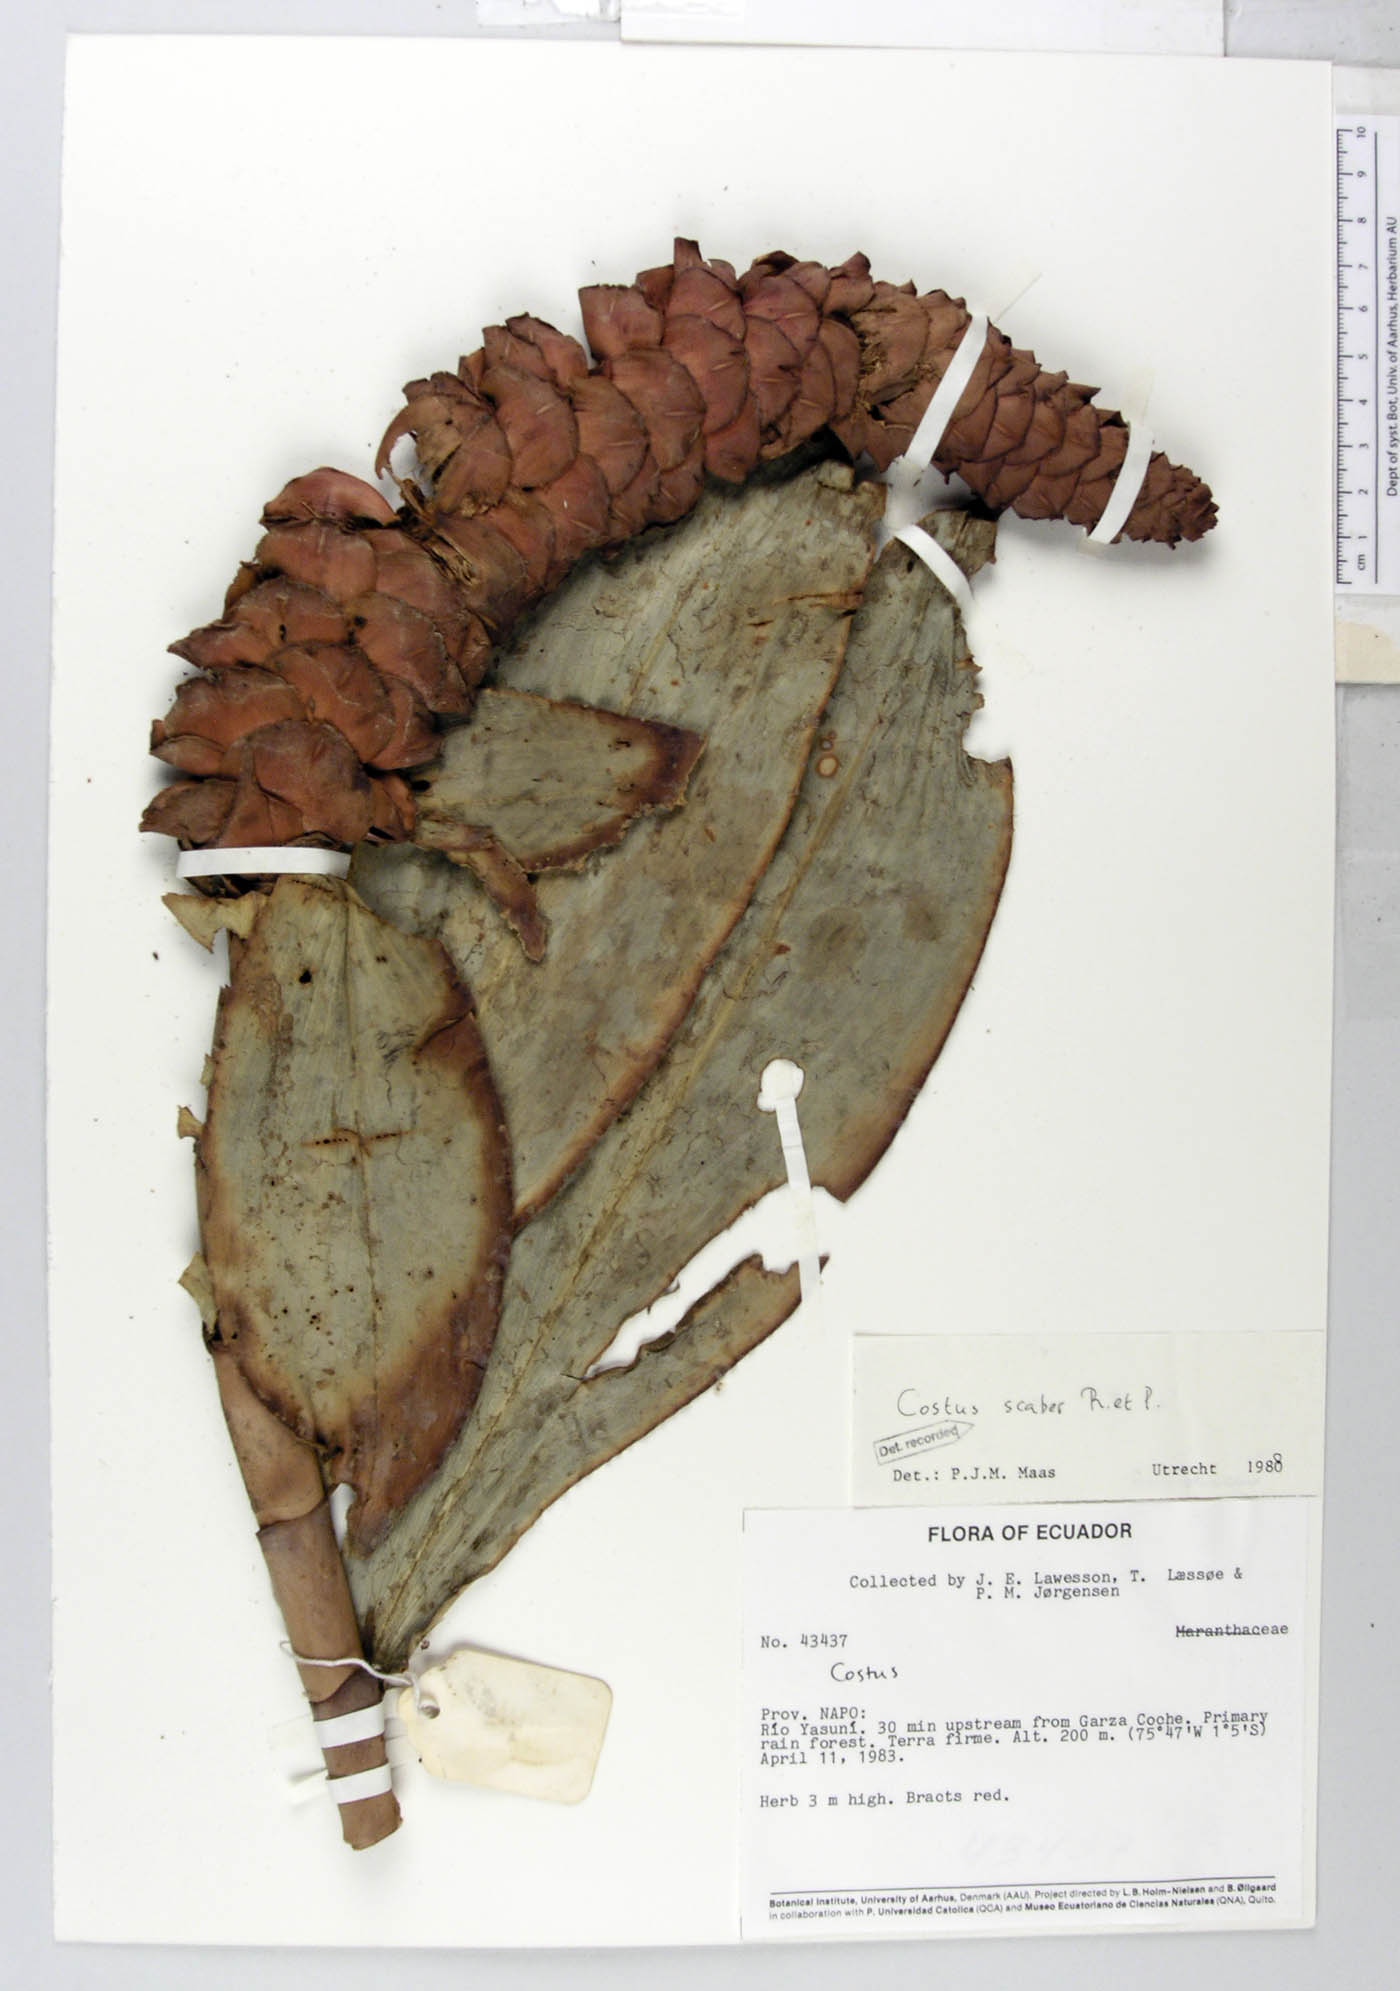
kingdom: Plantae
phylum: Tracheophyta
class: Liliopsida
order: Zingiberales
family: Costaceae
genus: Costus
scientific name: Costus scaber
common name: Spiral head ginger
